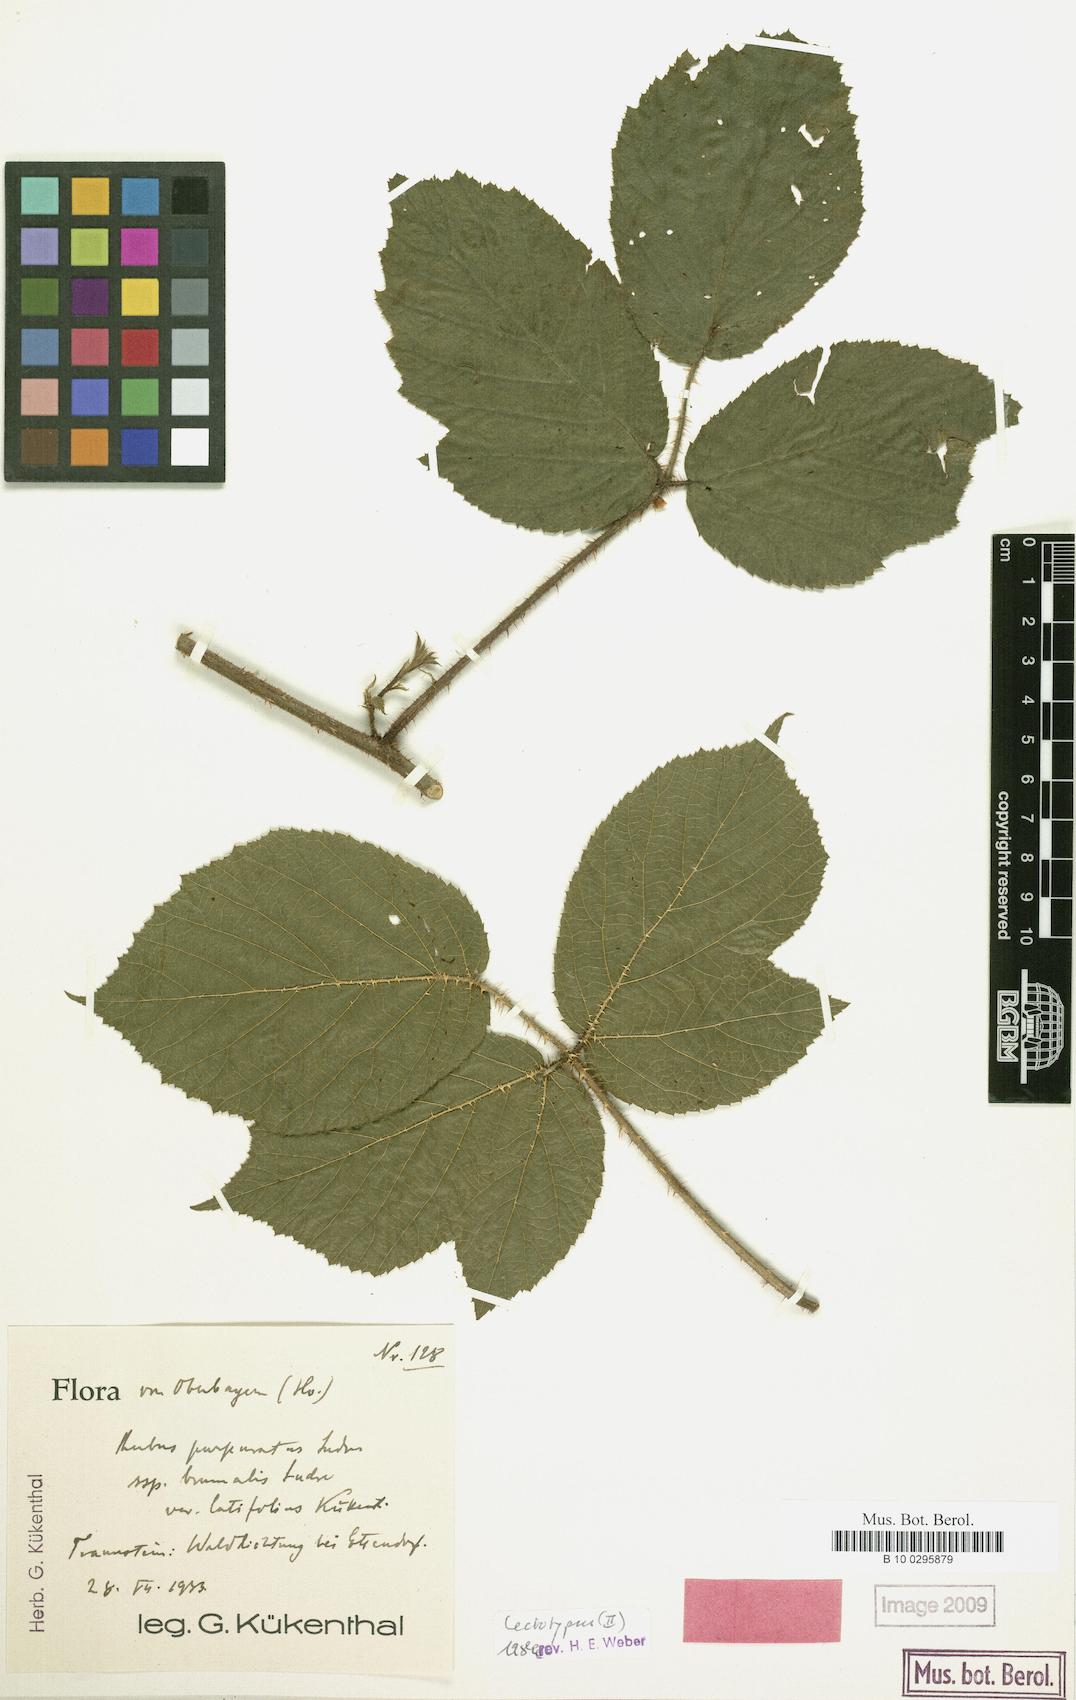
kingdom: Plantae
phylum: Tracheophyta
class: Magnoliopsida
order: Rosales
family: Rosaceae
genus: Rubus
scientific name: Rubus amoenus
